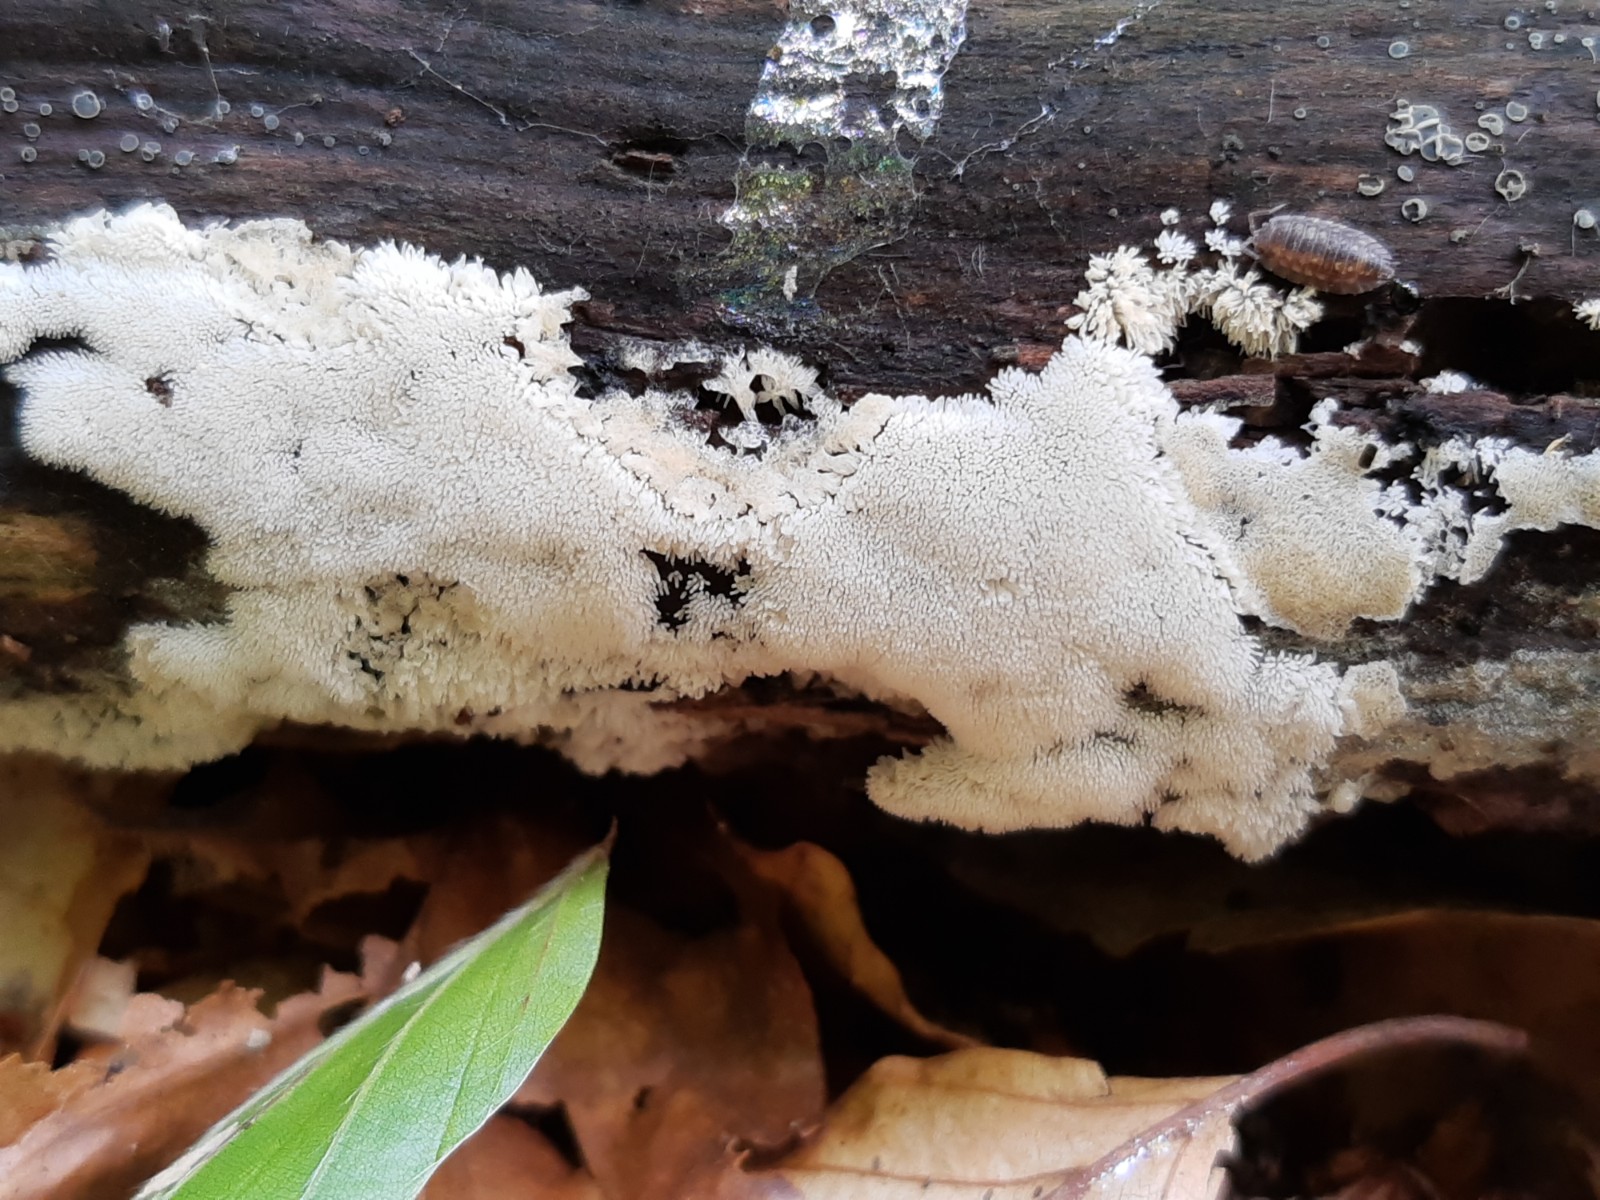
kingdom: Protozoa
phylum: Mycetozoa
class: Protosteliomycetes
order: Ceratiomyxales
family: Ceratiomyxaceae
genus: Ceratiomyxa
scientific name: Ceratiomyxa fruticulosa
